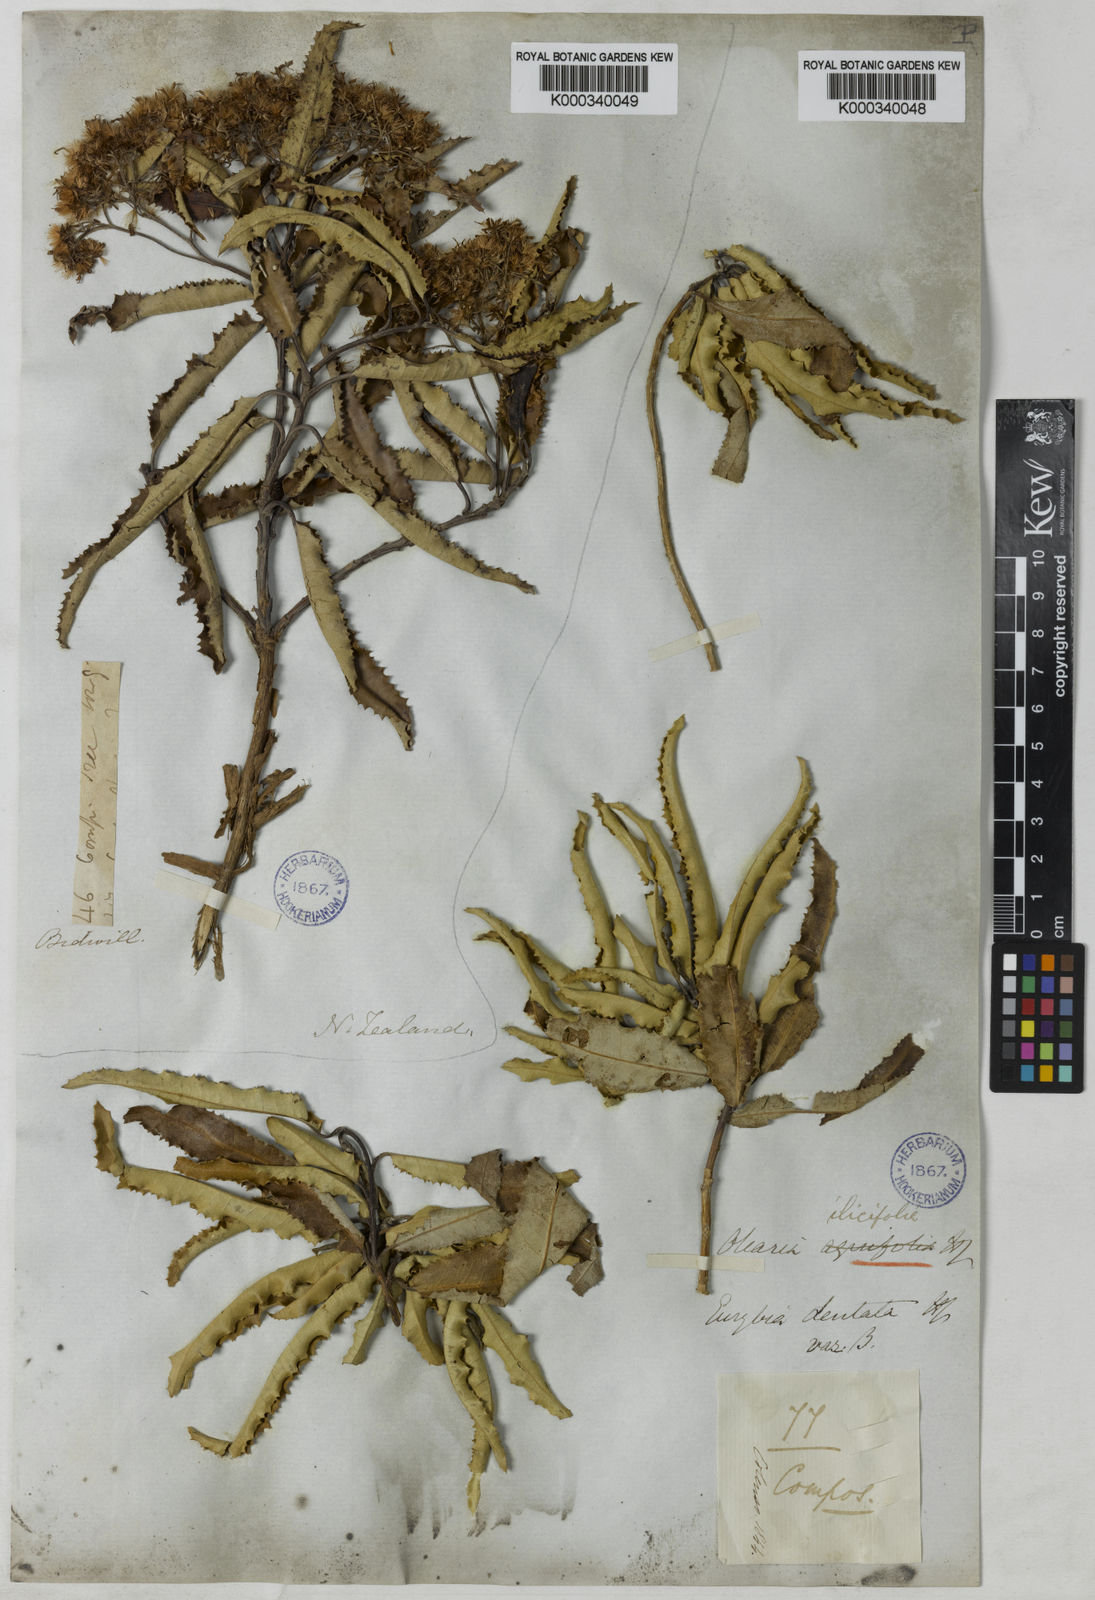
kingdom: Plantae
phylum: Tracheophyta
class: Magnoliopsida
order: Asterales
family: Asteraceae
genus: Olearia
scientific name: Olearia ilicifolia
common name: Maori-holly
